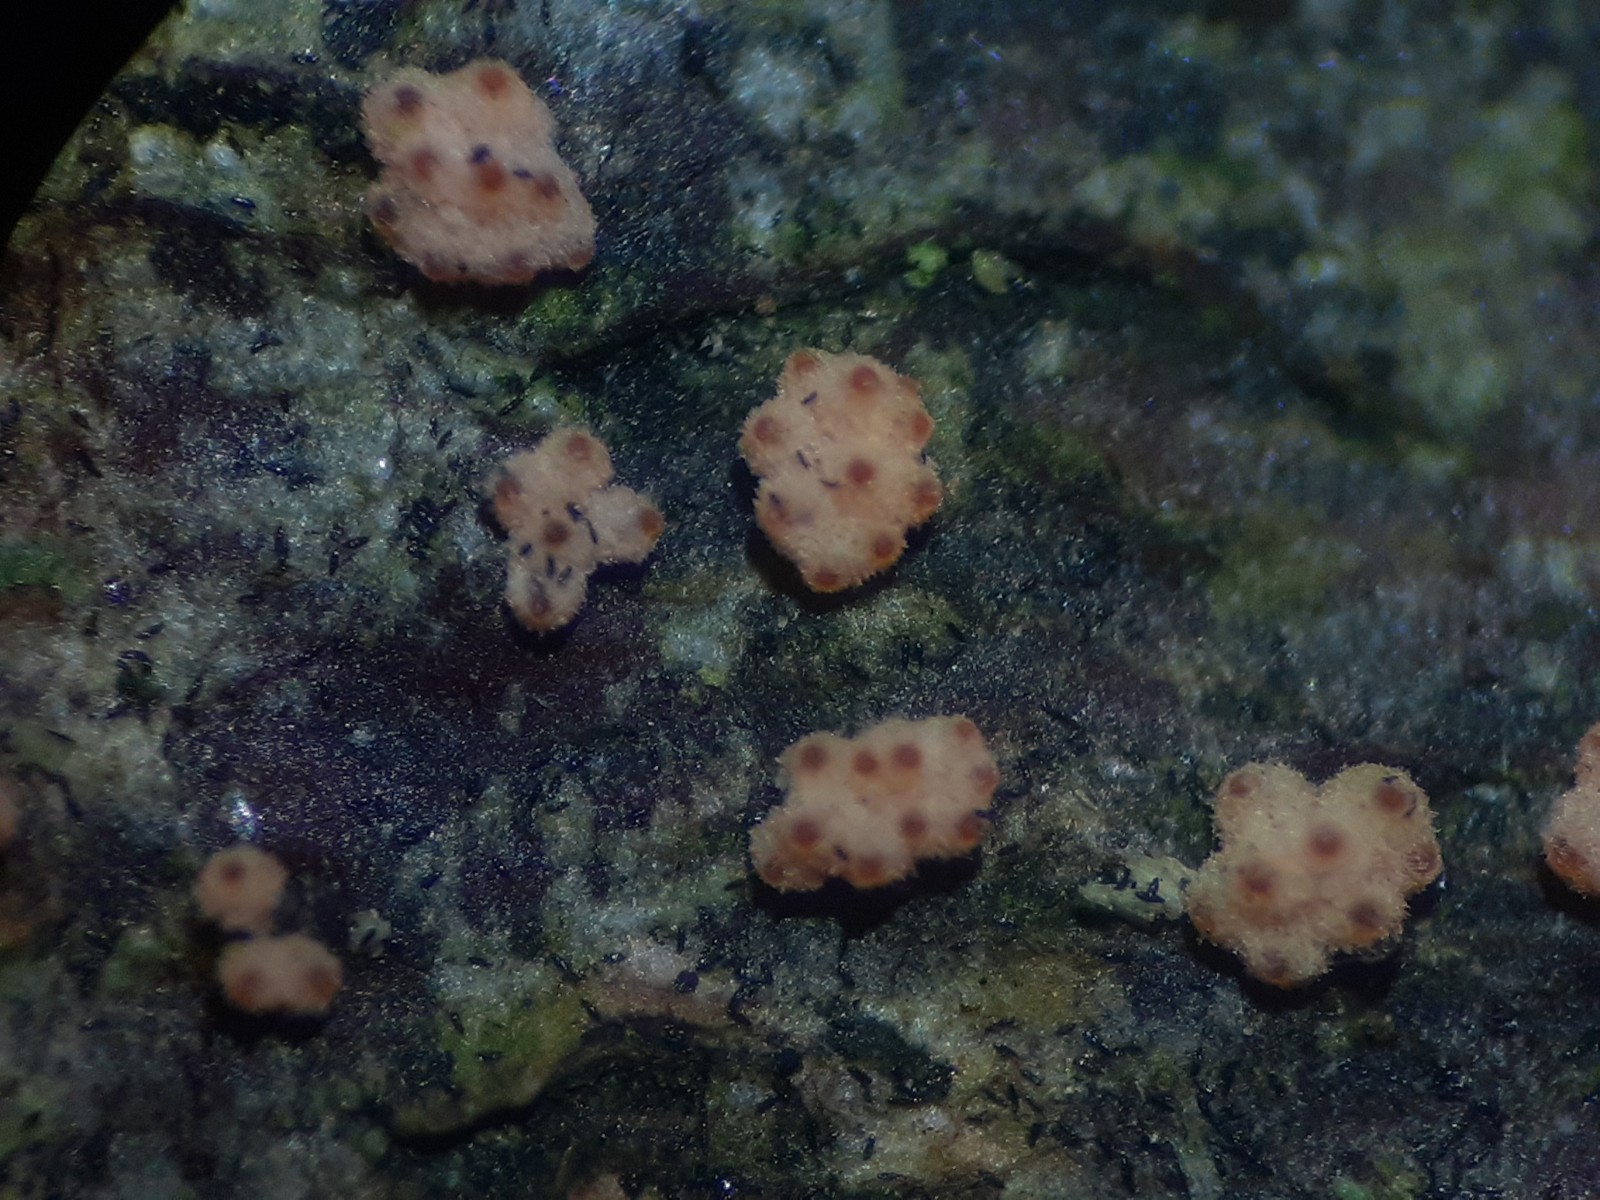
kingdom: Fungi
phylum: Ascomycota
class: Sordariomycetes
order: Hypocreales
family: Flammocladiellaceae
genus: Flammocladiella
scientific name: Flammocladiella decora
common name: kulvulkan-cinnobersvamp
